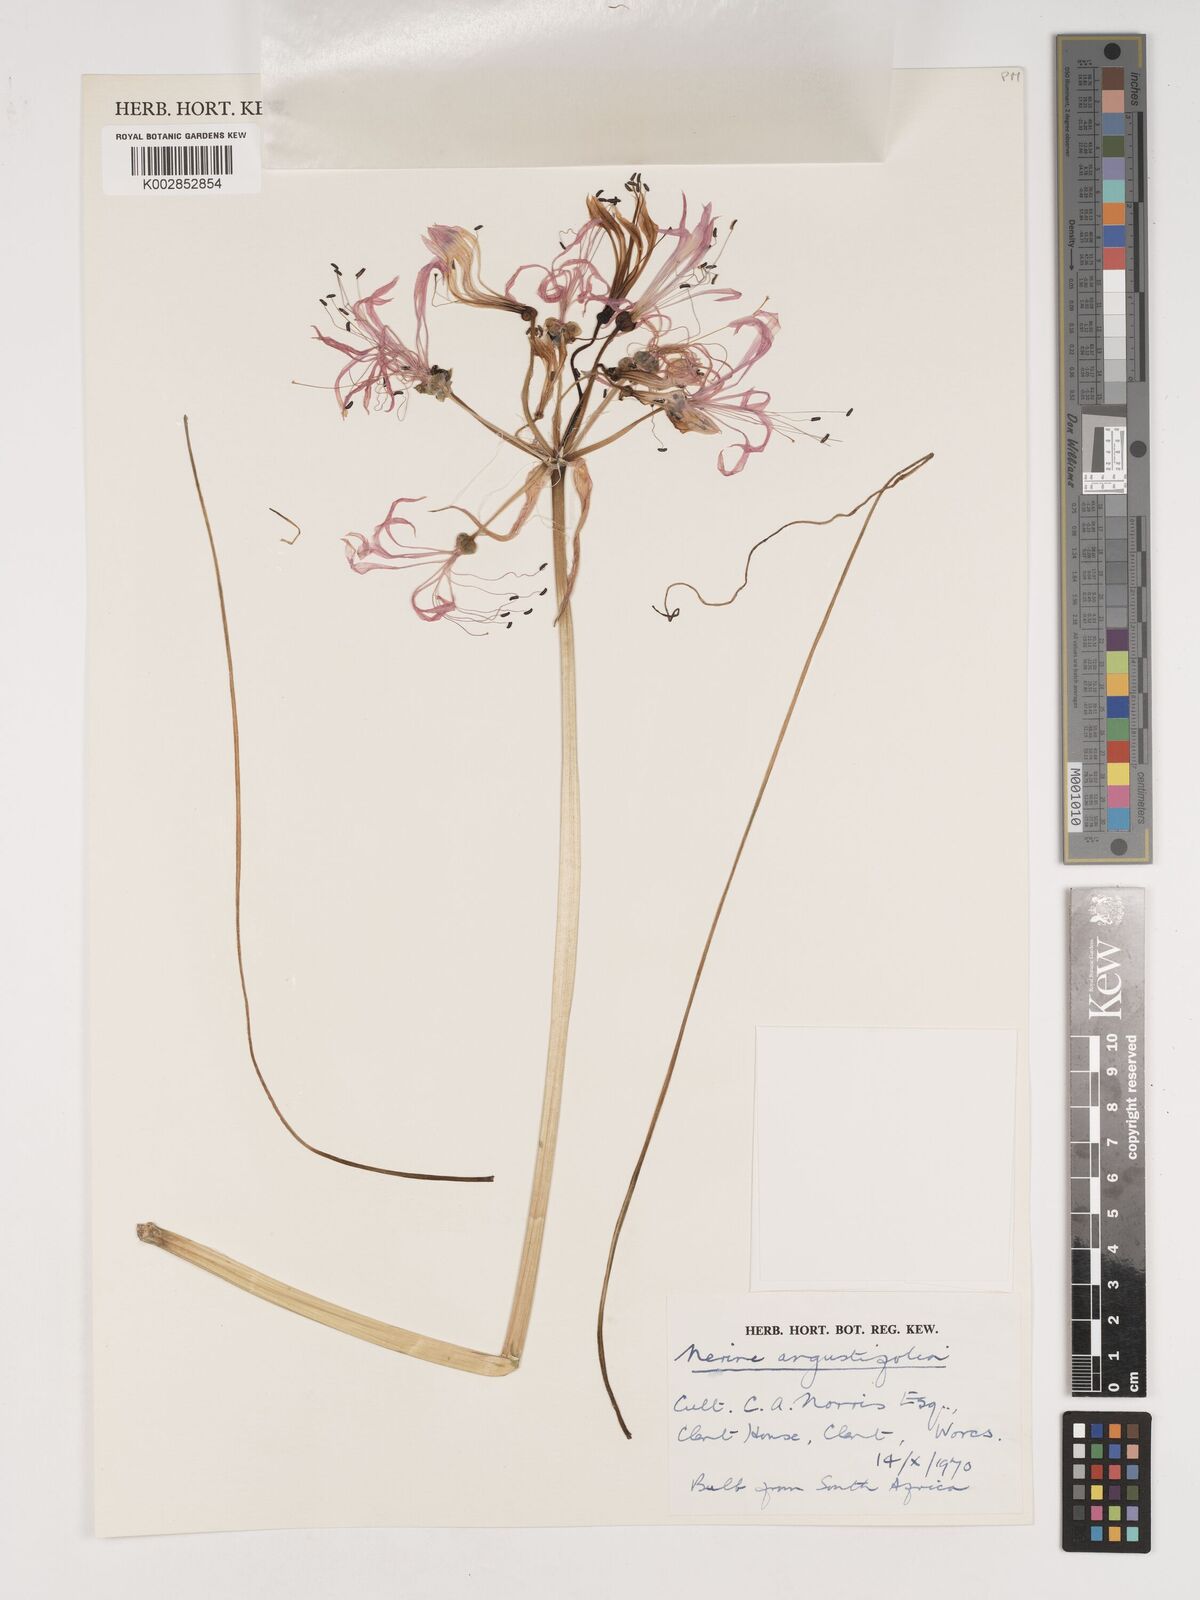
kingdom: Plantae
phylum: Tracheophyta
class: Liliopsida
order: Asparagales
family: Amaryllidaceae
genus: Nerine
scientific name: Nerine angustifolia
